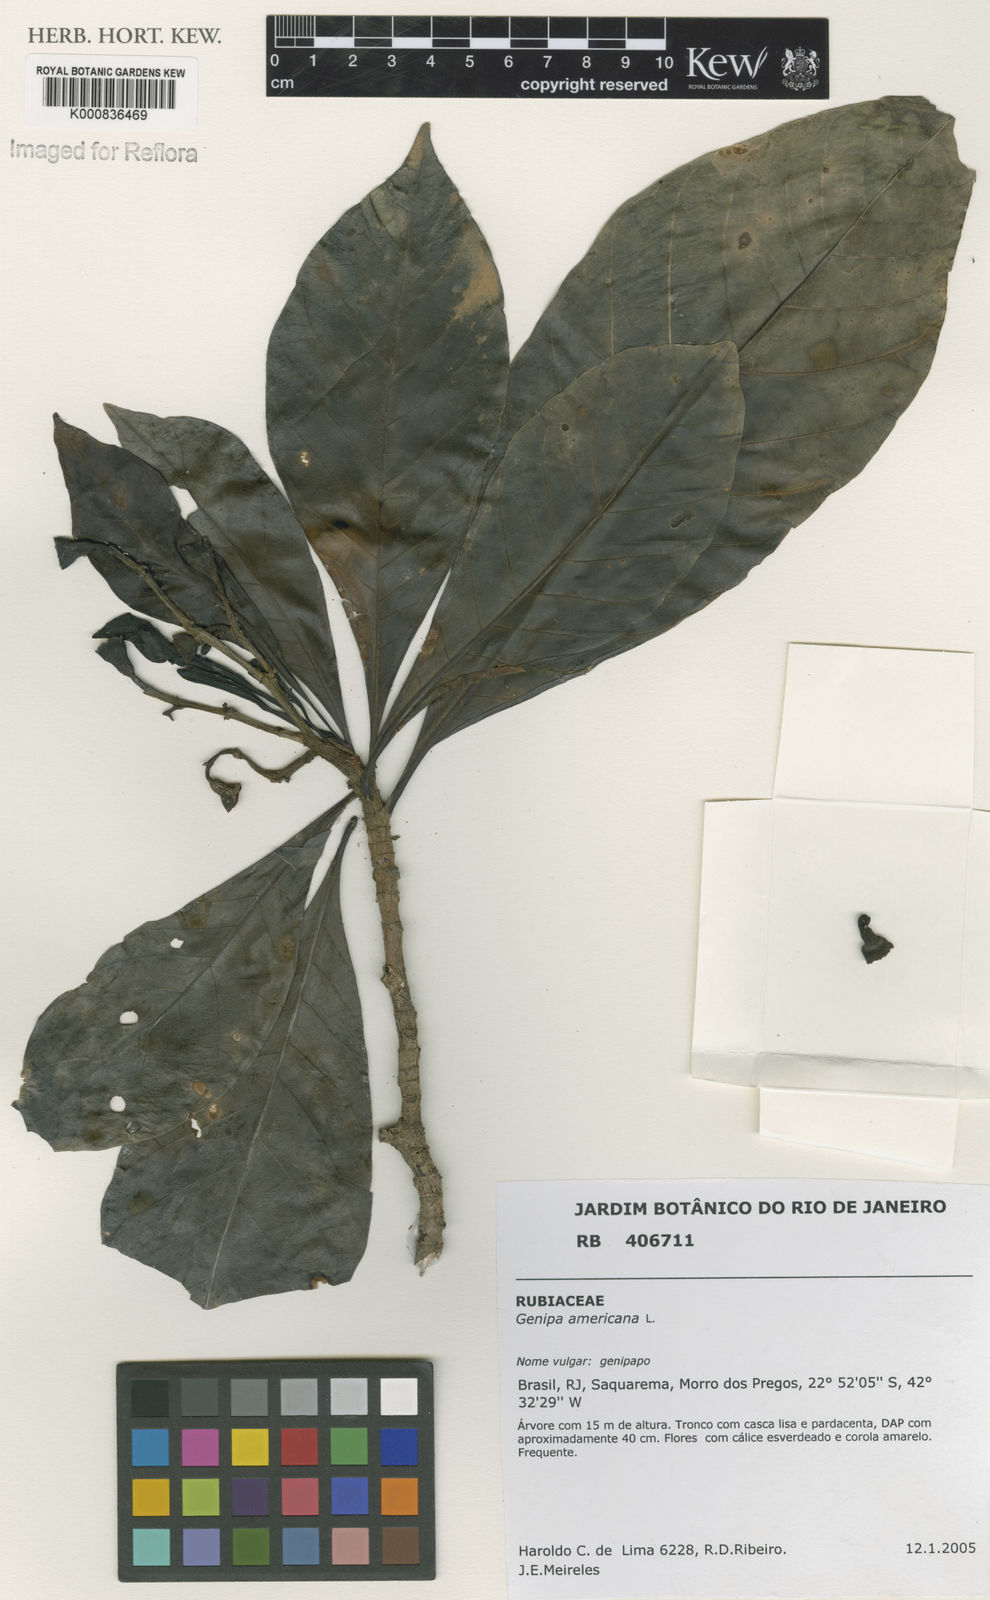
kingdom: Plantae
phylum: Tracheophyta
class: Magnoliopsida
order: Gentianales
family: Rubiaceae
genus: Genipa
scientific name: Genipa americana
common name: Genipap
